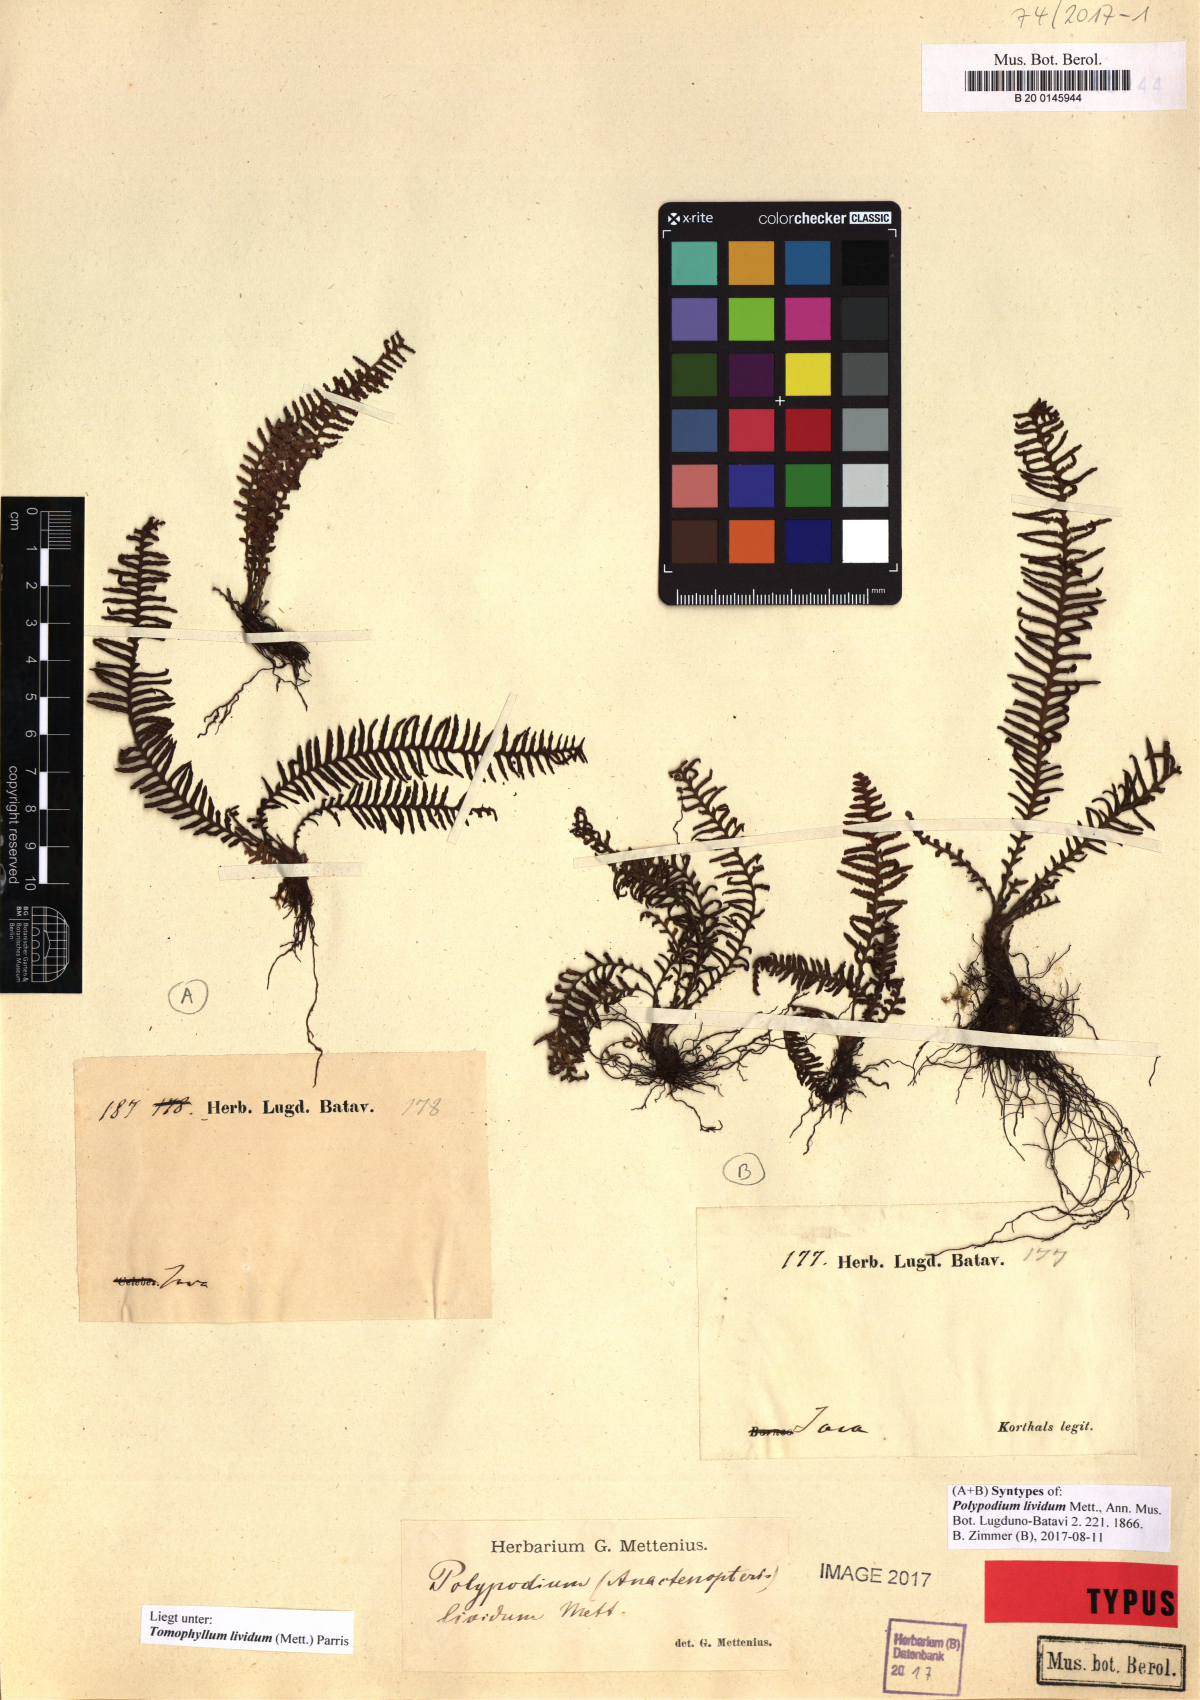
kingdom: Plantae
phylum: Tracheophyta
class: Polypodiopsida
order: Polypodiales
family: Polypodiaceae
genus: Tomophyllum
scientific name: Tomophyllum lividum
